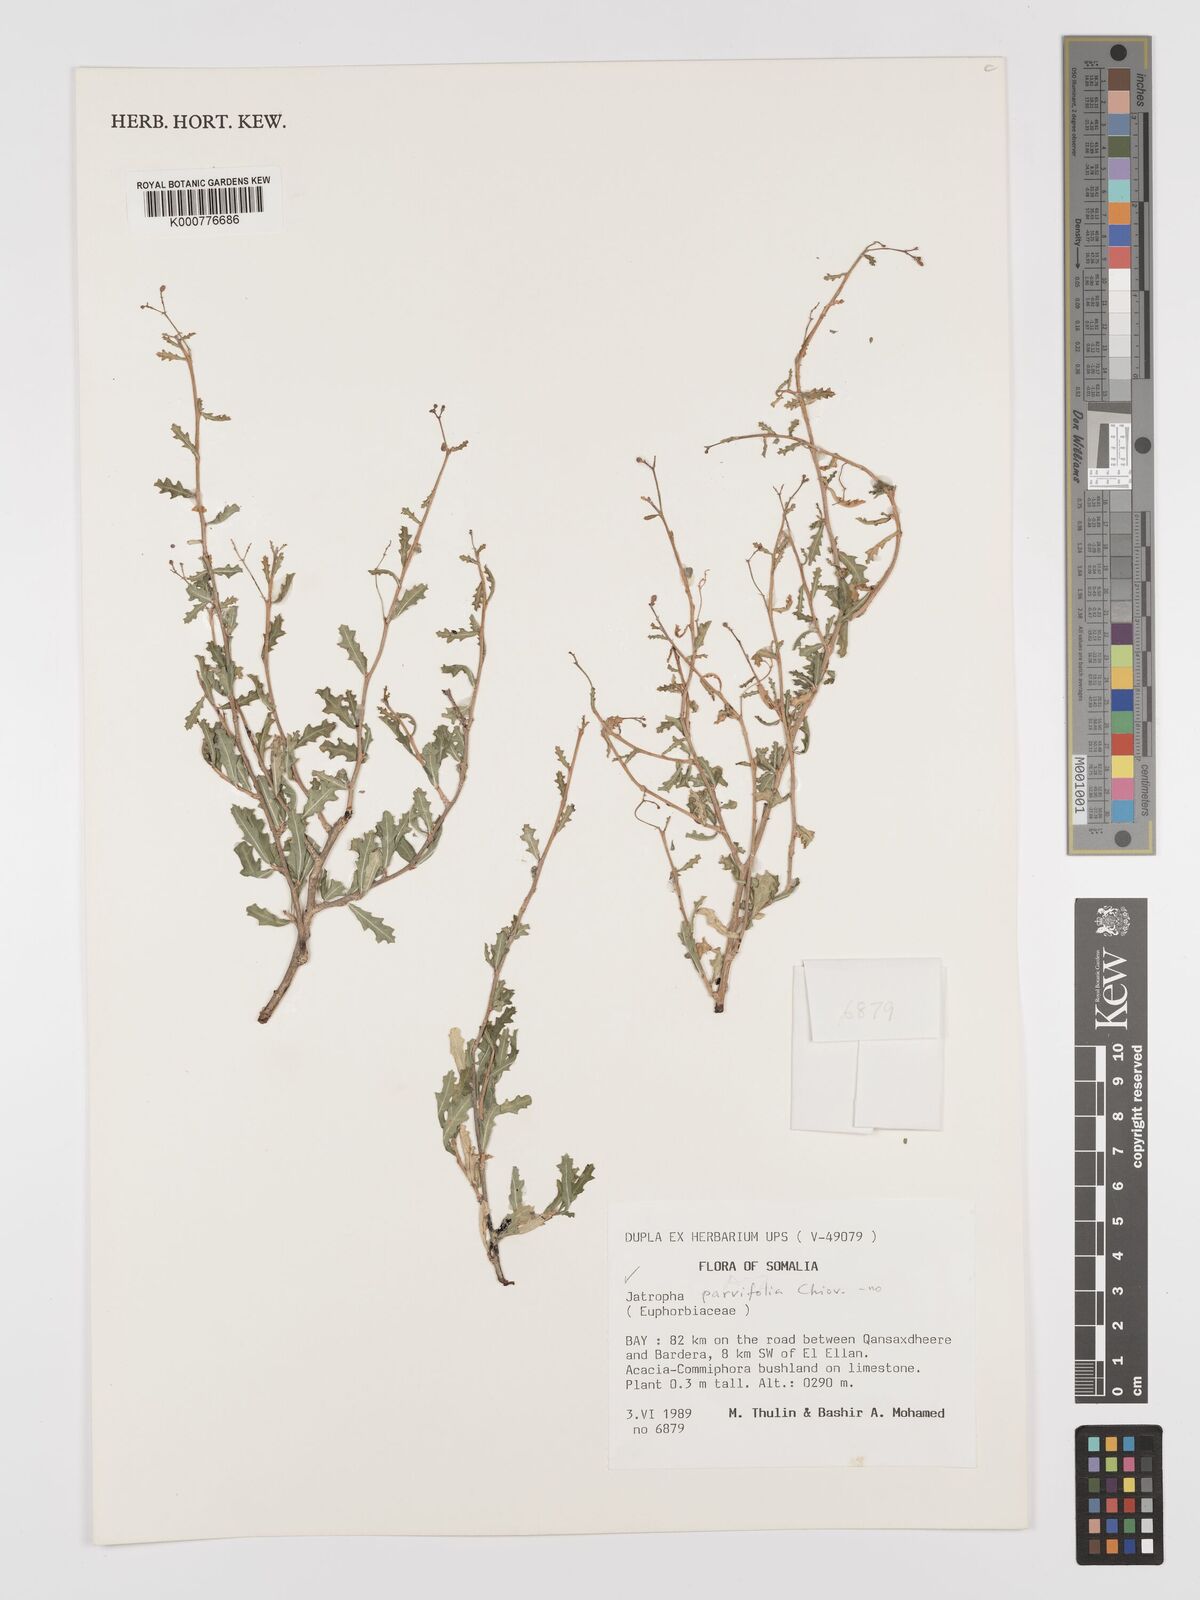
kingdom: Plantae
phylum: Tracheophyta
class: Magnoliopsida
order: Malpighiales
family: Euphorbiaceae
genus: Jatropha
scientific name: Jatropha rivae
